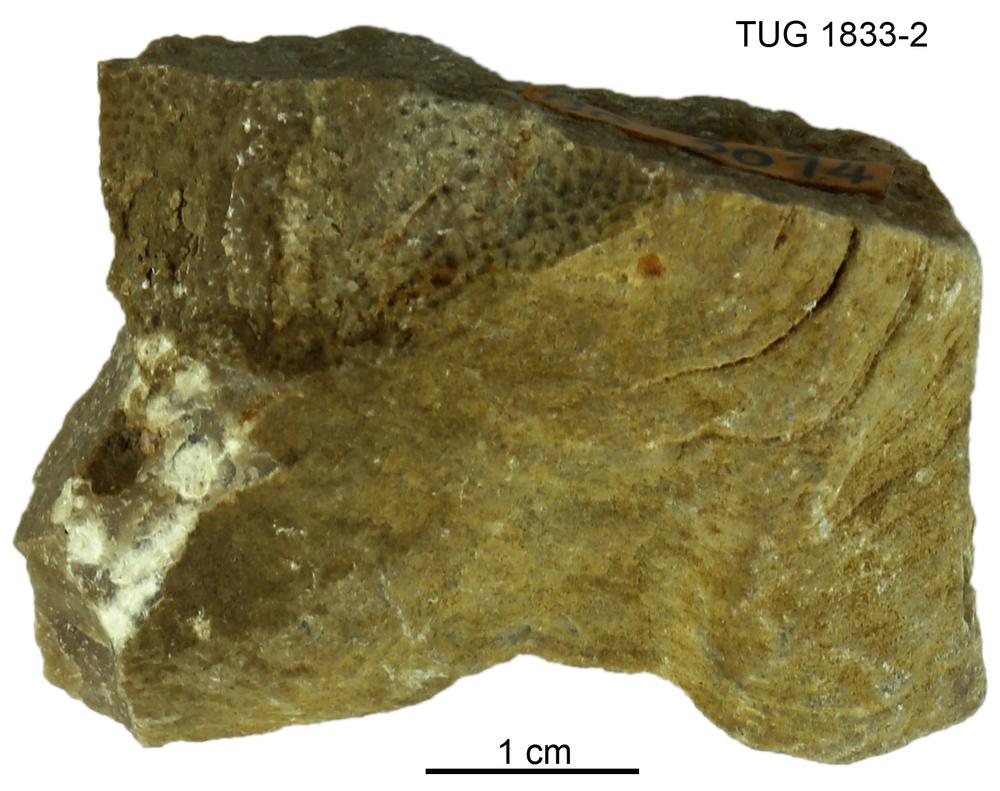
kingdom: Animalia
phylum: Porifera
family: Stromatoporidae
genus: Stromatopora
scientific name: Stromatopora
